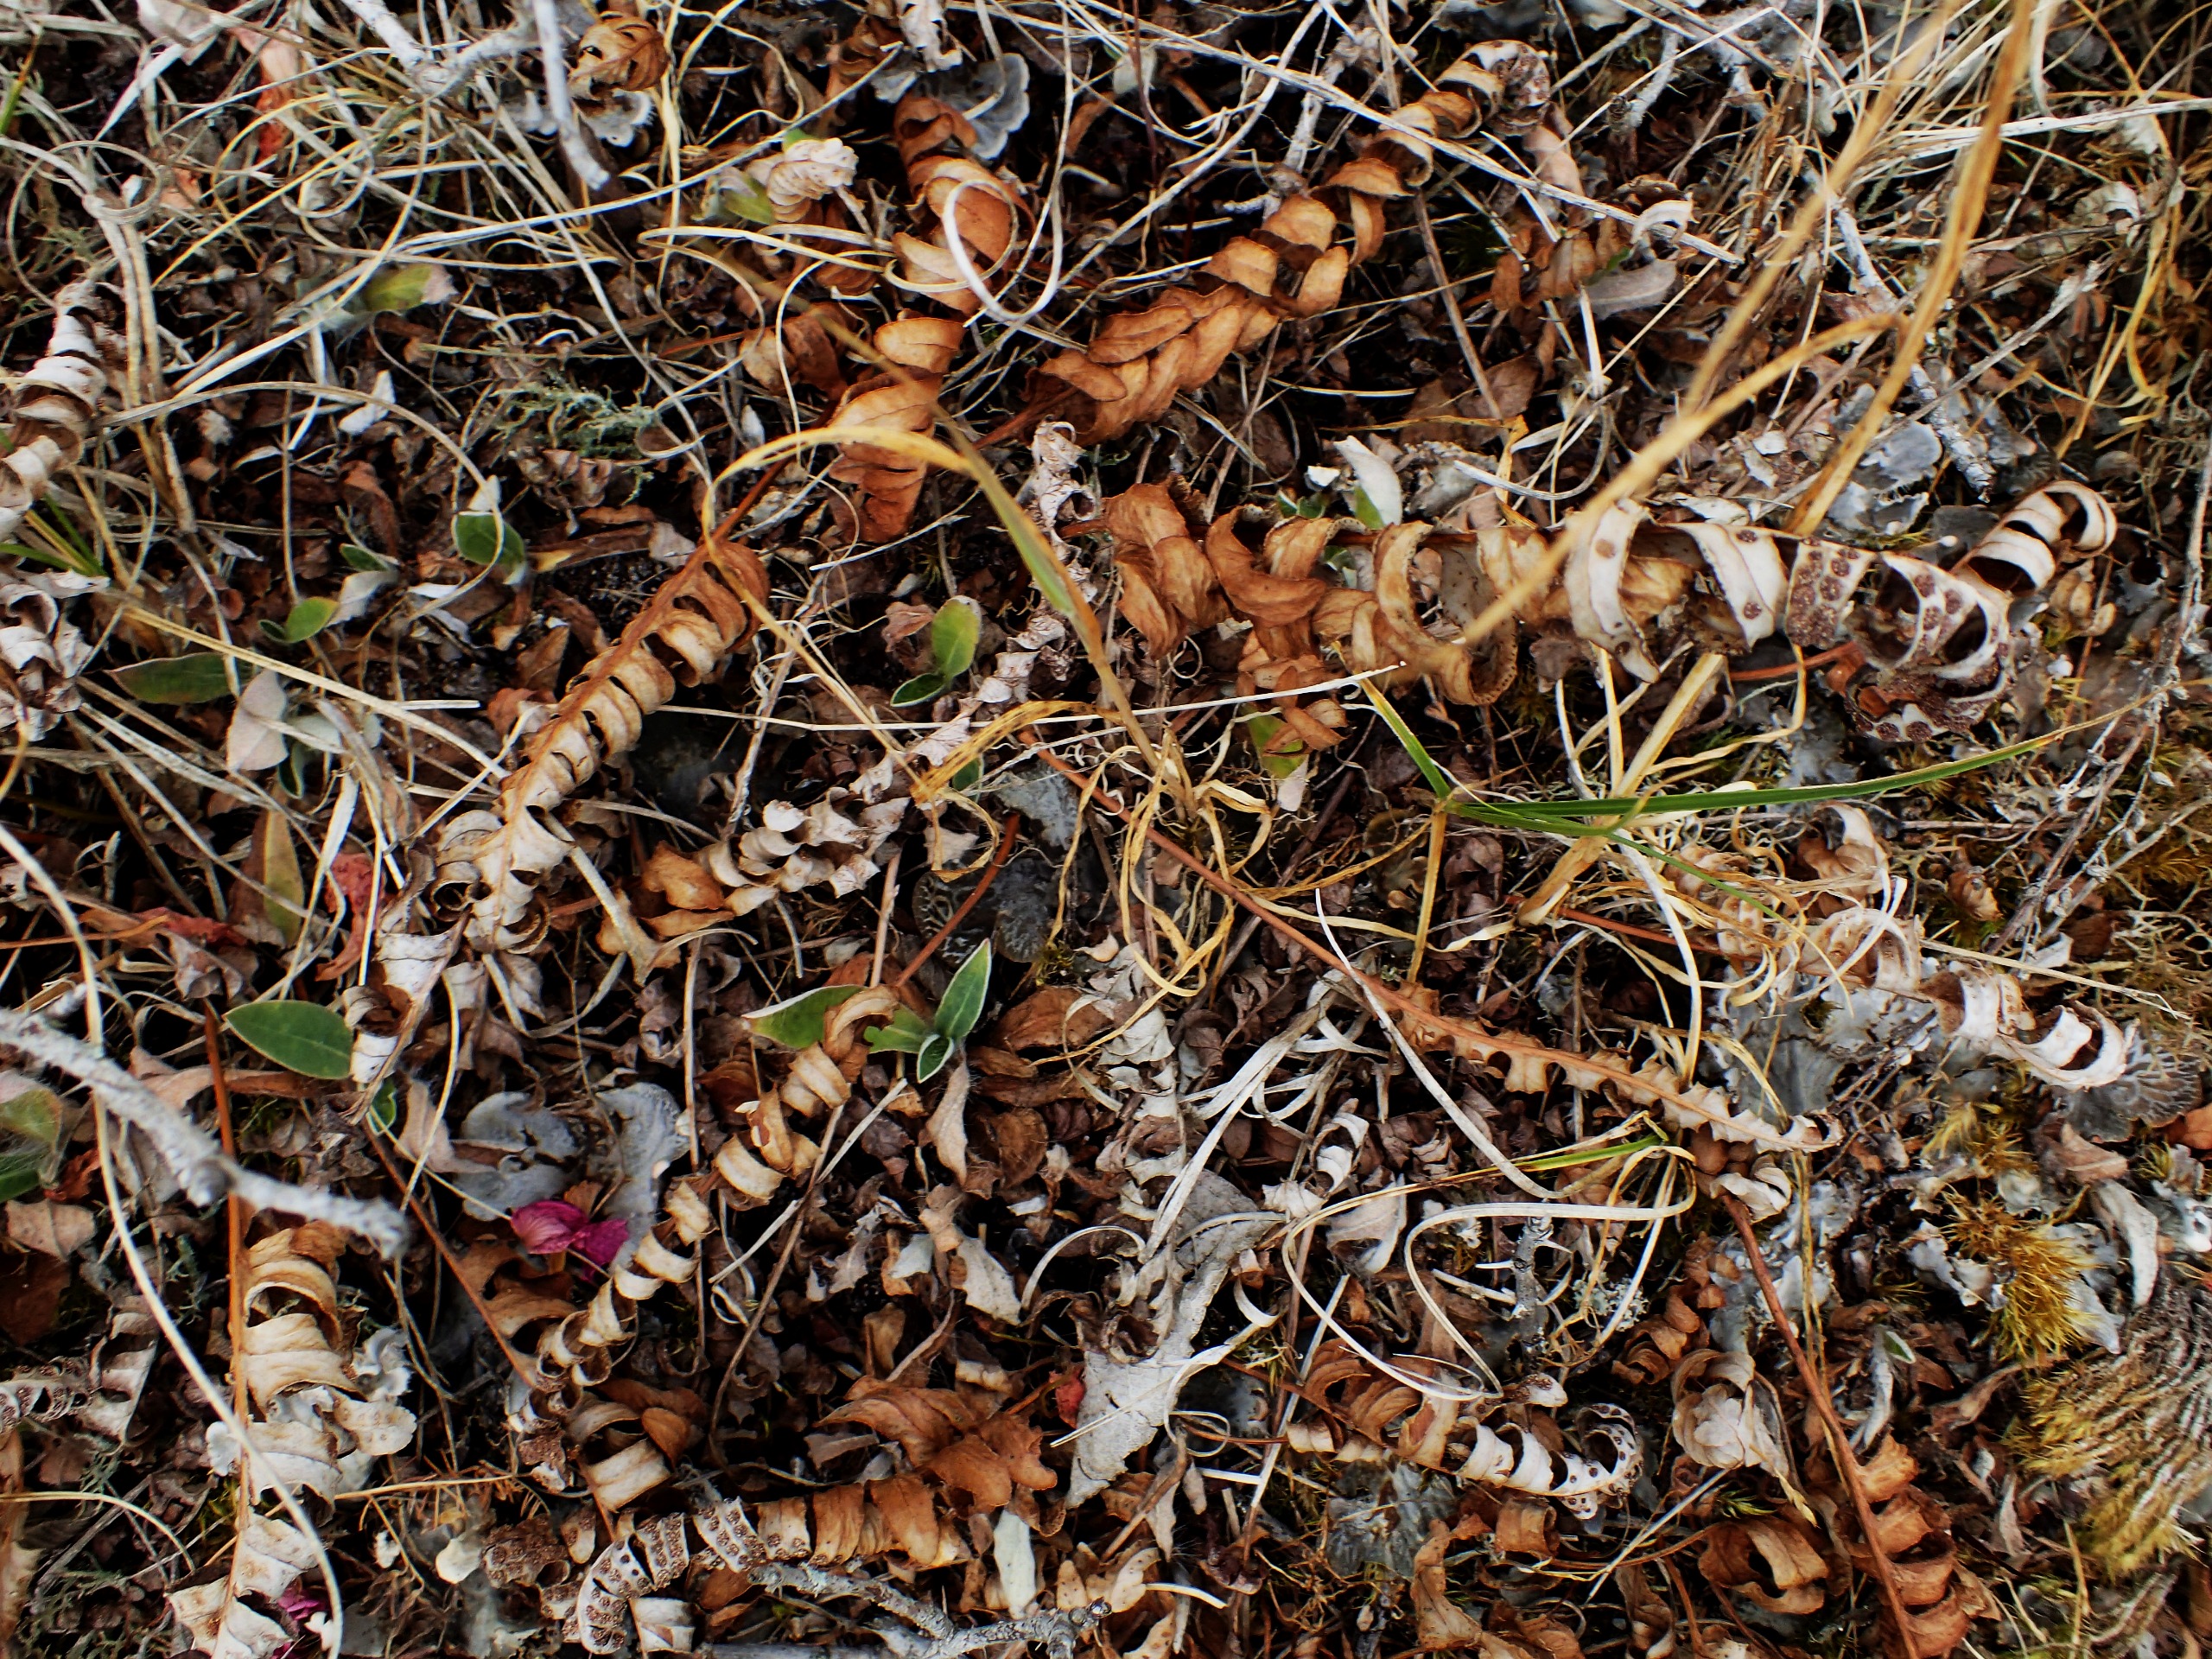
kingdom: Plantae
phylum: Tracheophyta
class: Polypodiopsida
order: Polypodiales
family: Polypodiaceae
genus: Polypodium
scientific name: Polypodium vulgare
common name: Almindelig engelsød
